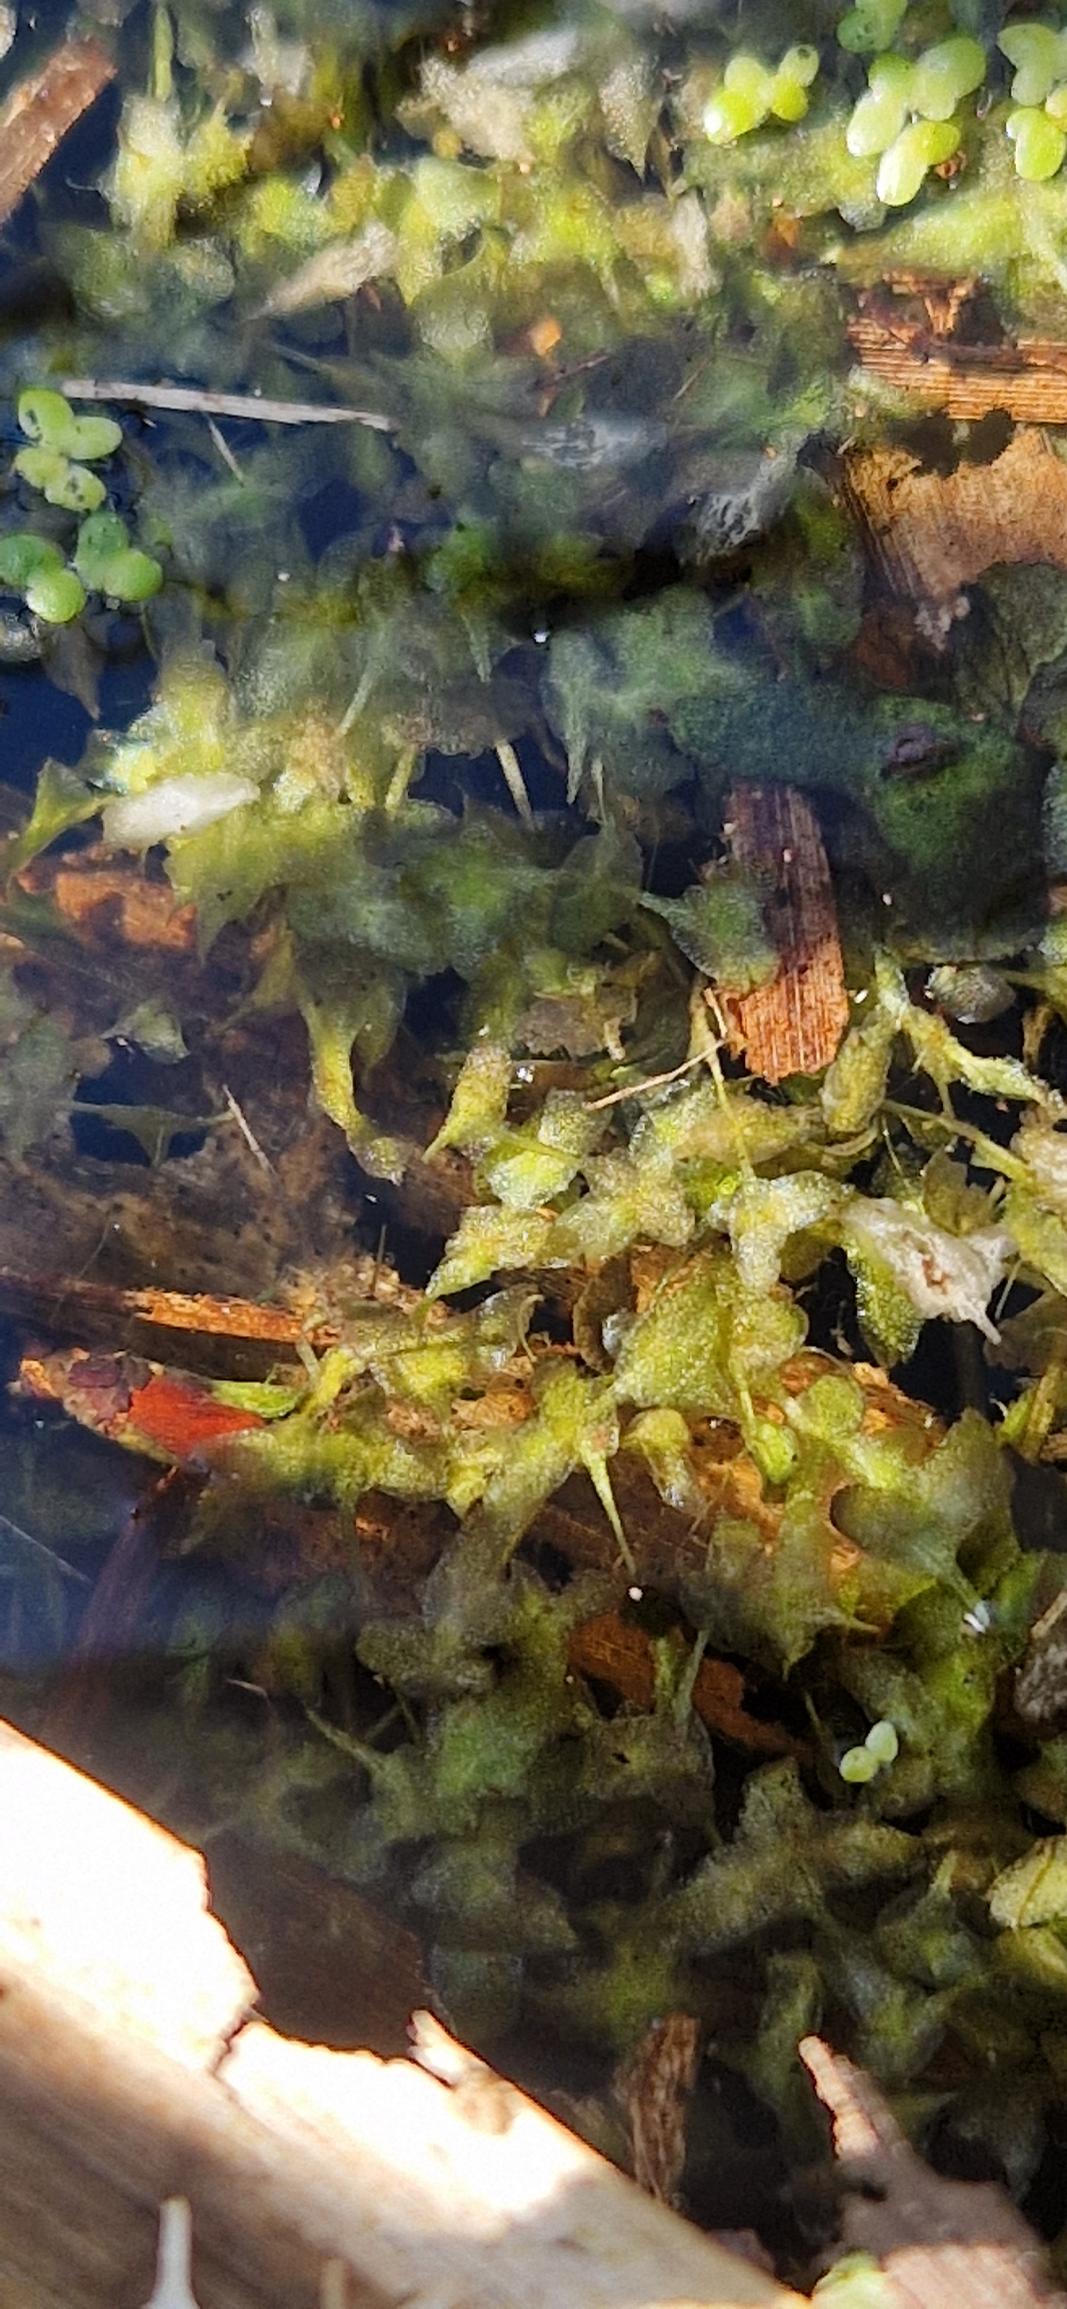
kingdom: Plantae
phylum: Tracheophyta
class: Liliopsida
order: Alismatales
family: Araceae
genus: Lemna
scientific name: Lemna trisulca
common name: Kors-andemad
